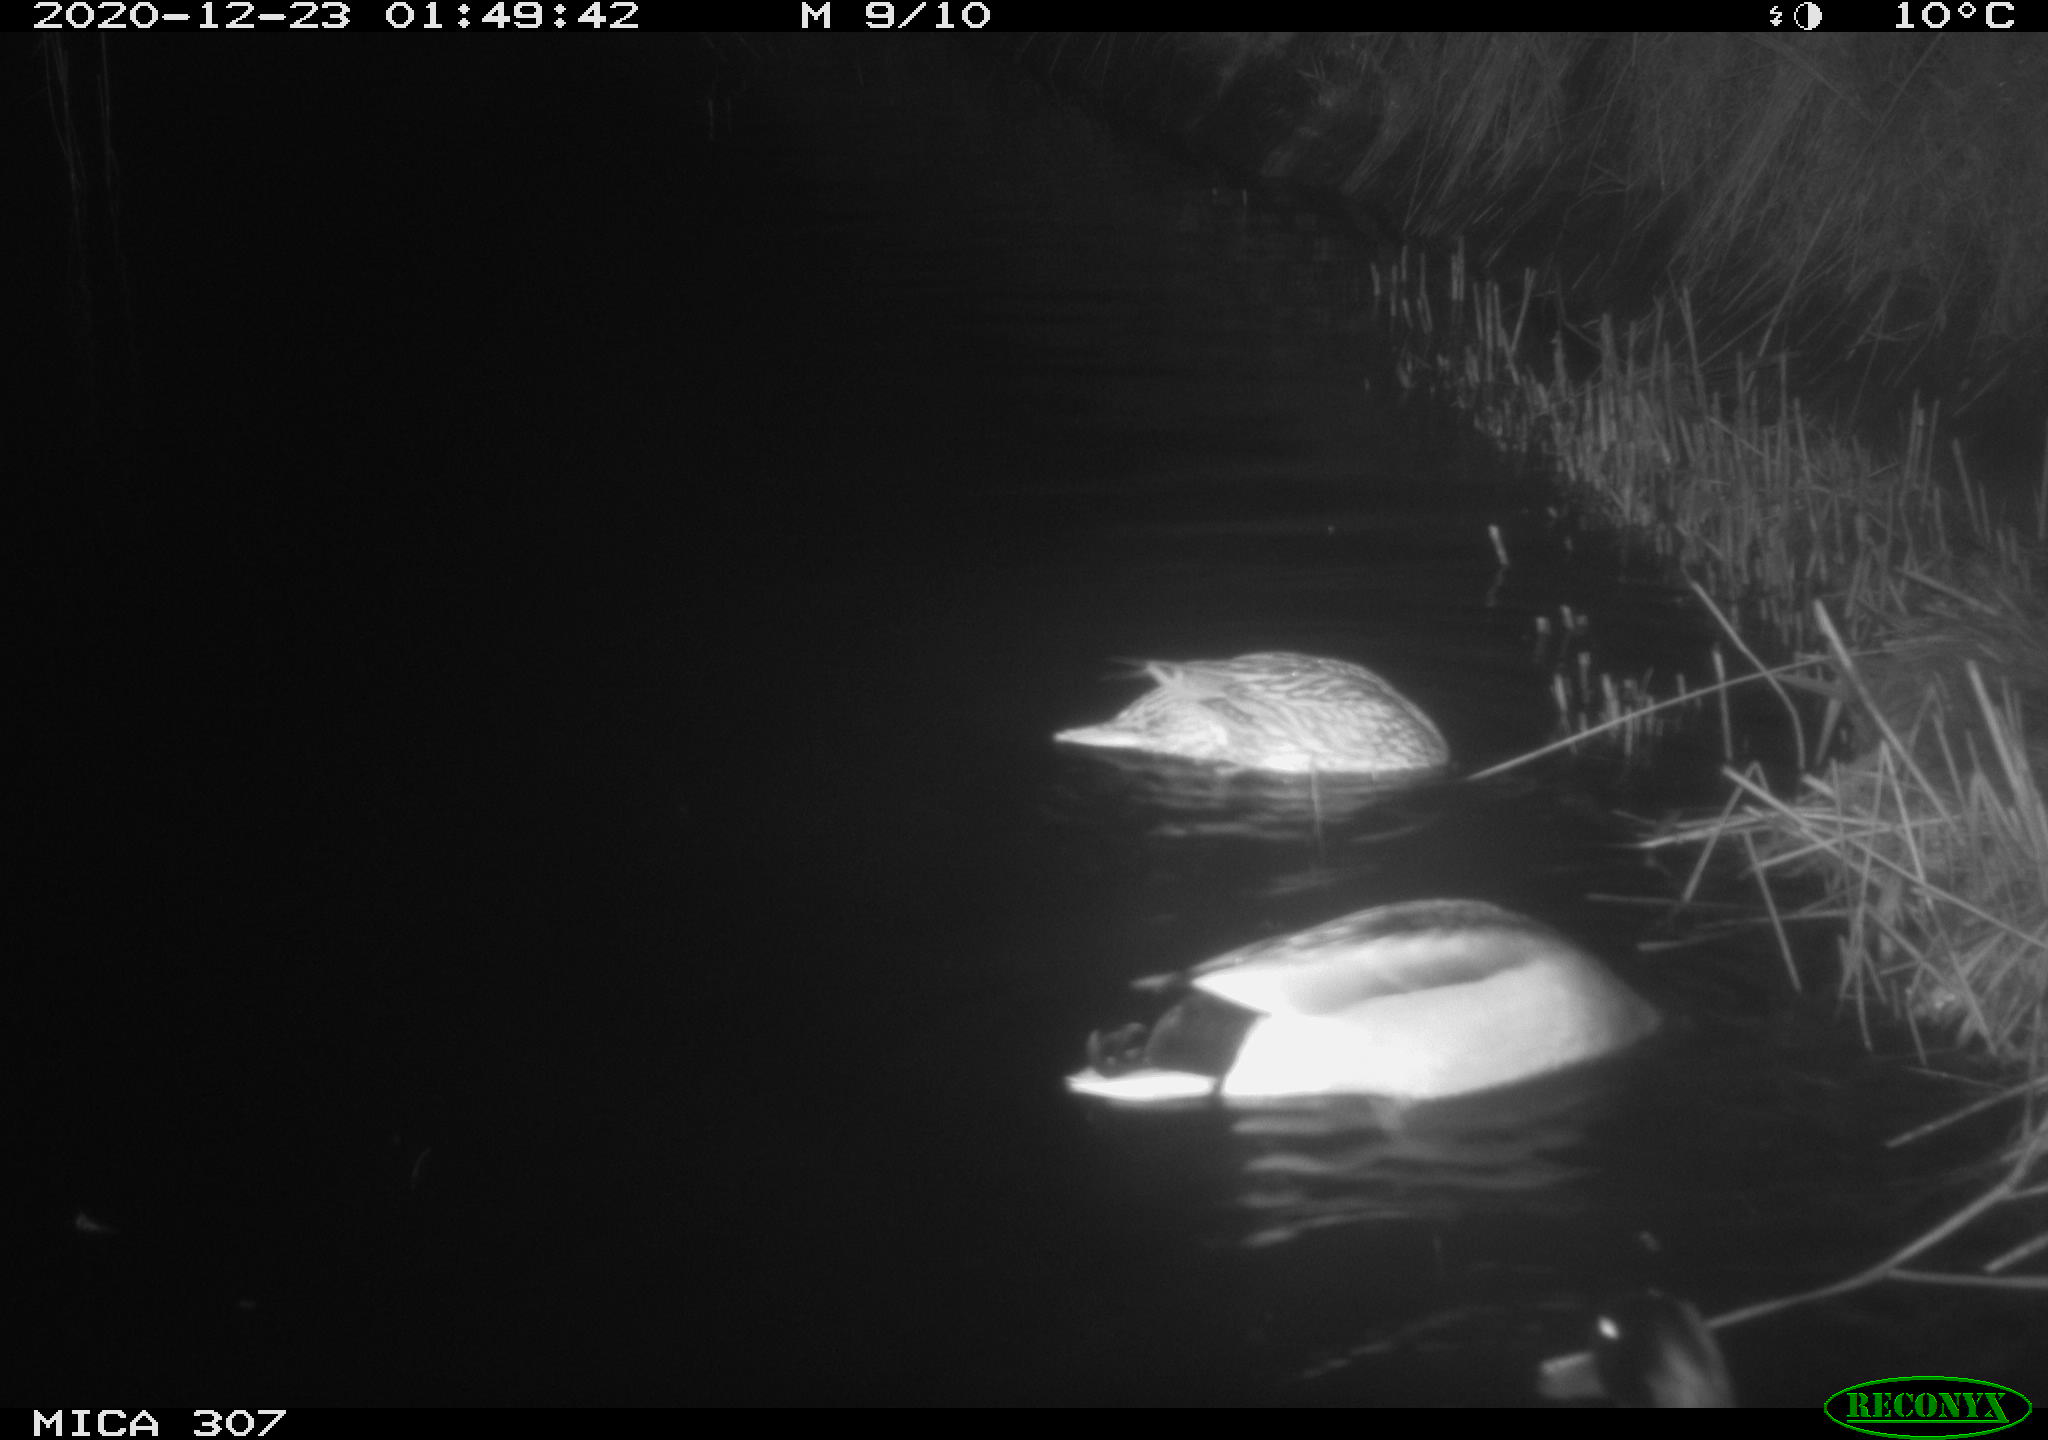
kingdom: Animalia
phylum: Chordata
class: Aves
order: Anseriformes
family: Anatidae
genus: Anas
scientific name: Anas platyrhynchos
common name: Mallard
